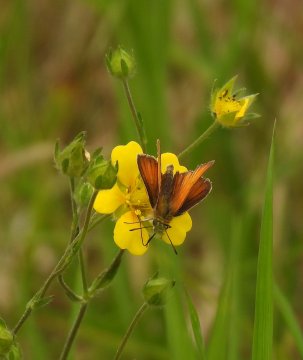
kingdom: Animalia
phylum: Arthropoda
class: Insecta
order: Lepidoptera
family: Hesperiidae
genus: Thymelicus
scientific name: Thymelicus lineola
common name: European Skipper
